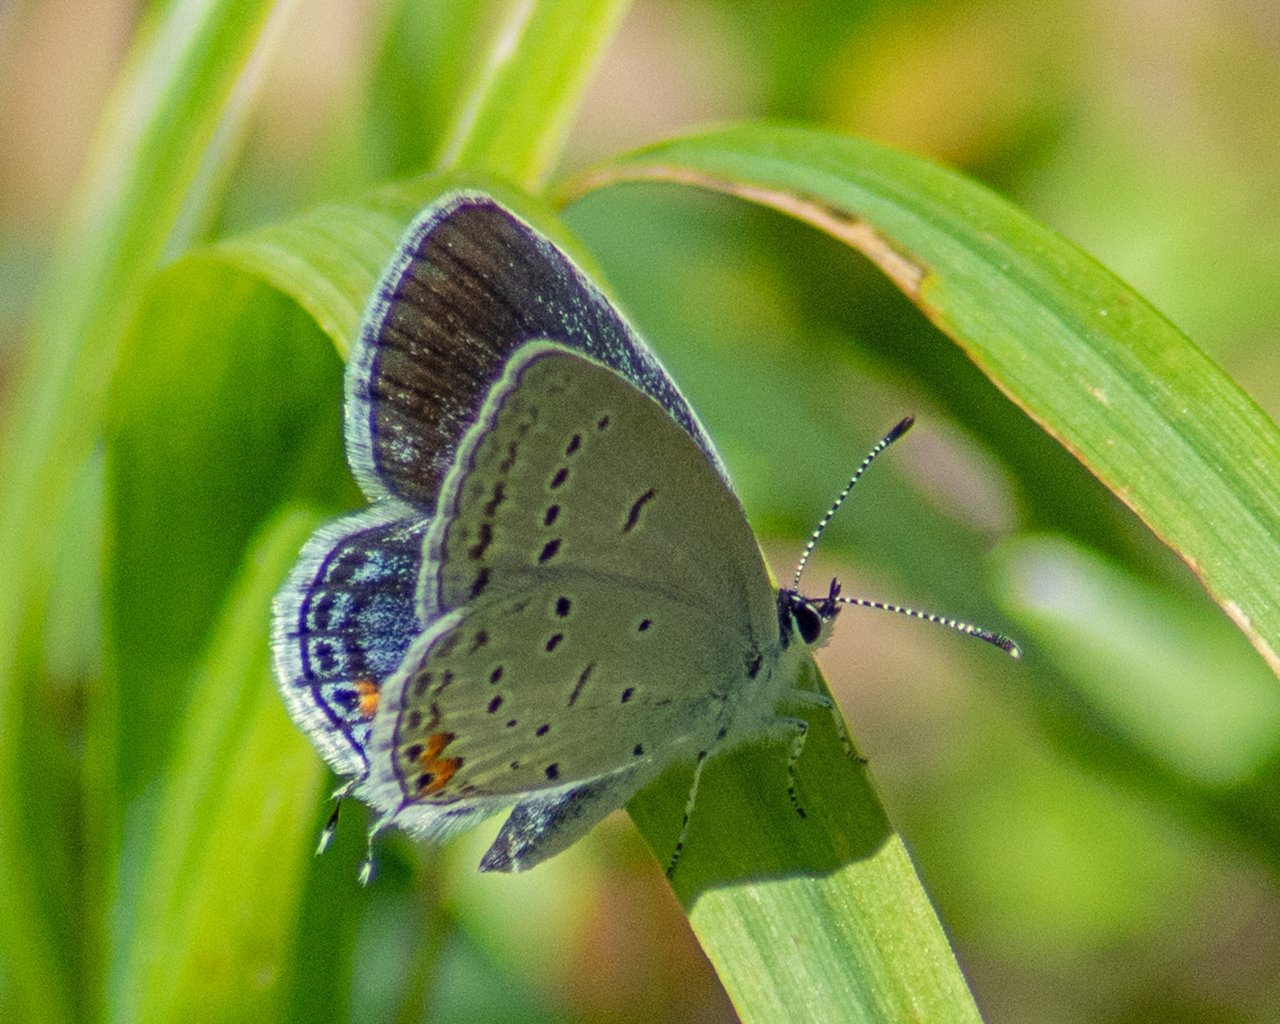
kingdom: Animalia
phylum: Arthropoda
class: Insecta
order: Lepidoptera
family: Lycaenidae
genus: Elkalyce
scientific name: Elkalyce comyntas
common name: Eastern Tailed-Blue
